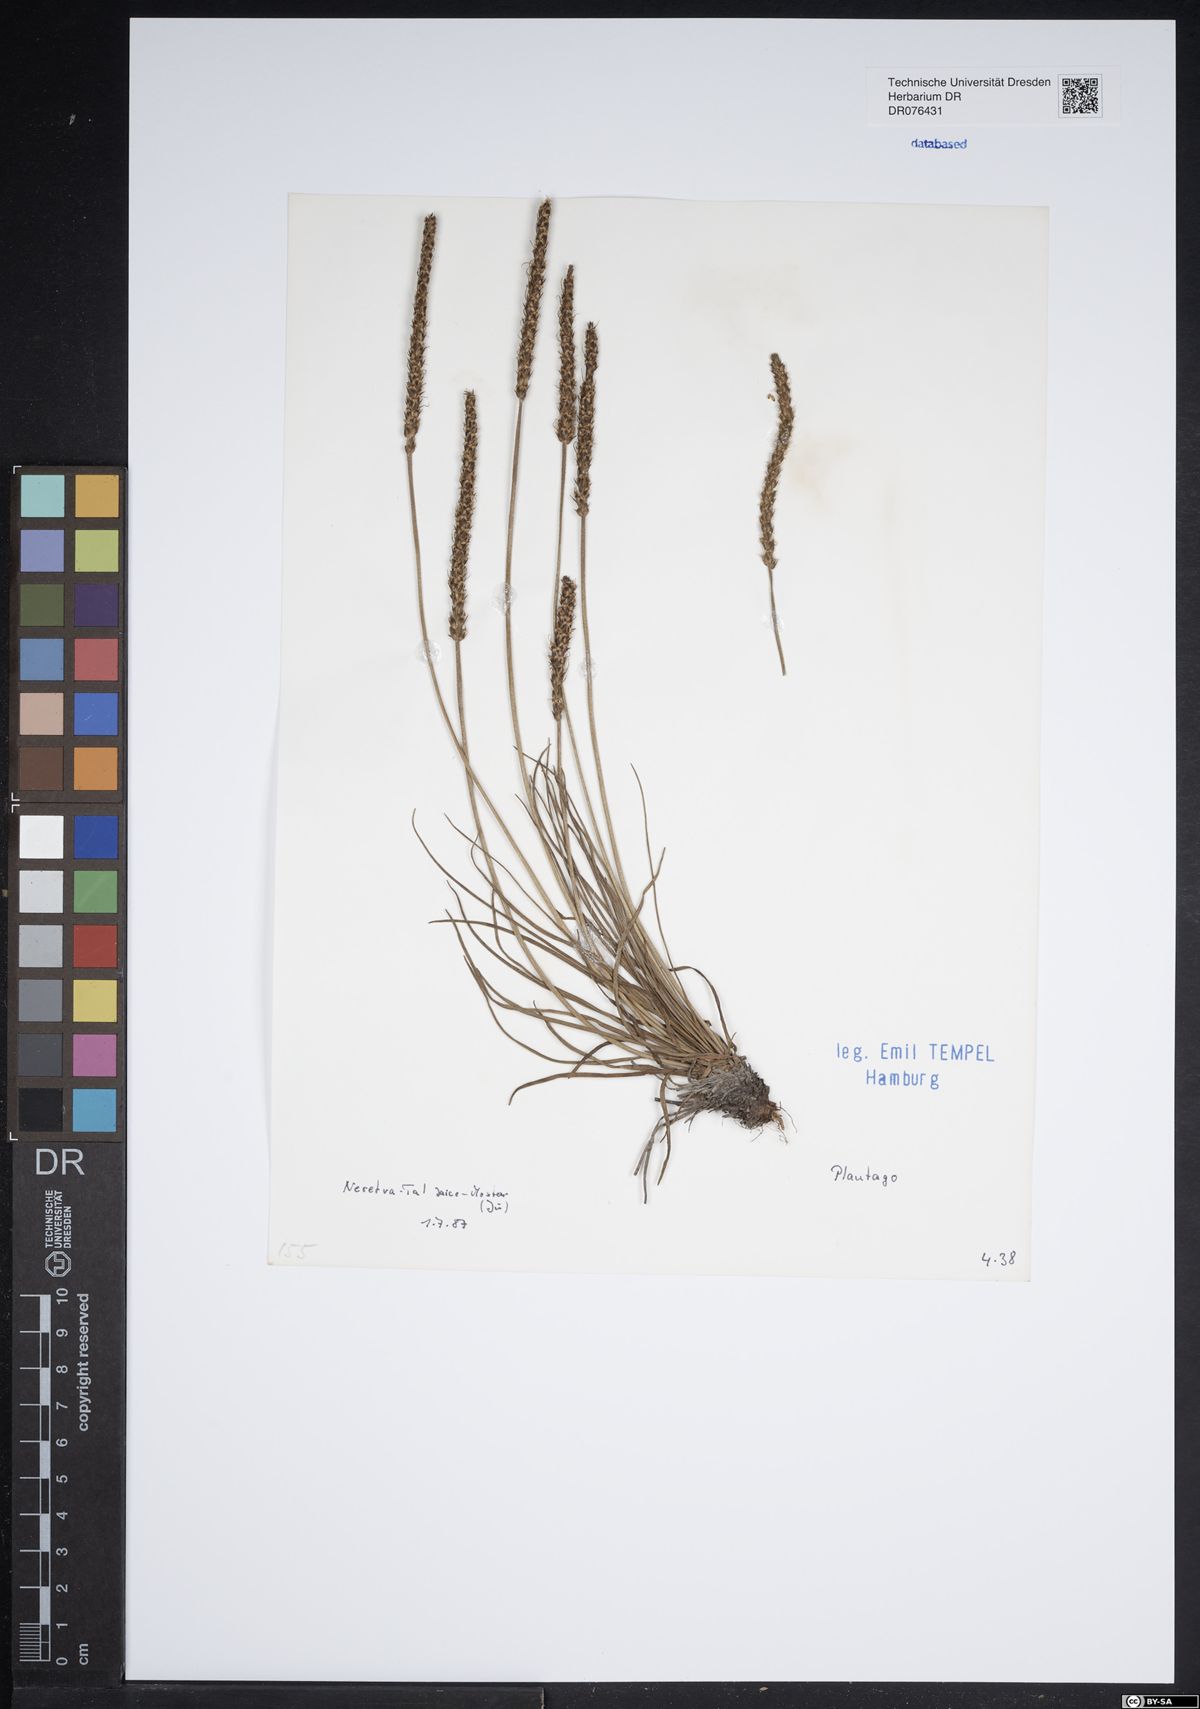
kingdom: Plantae
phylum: Tracheophyta
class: Magnoliopsida
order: Lamiales
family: Plantaginaceae
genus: Plantago
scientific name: Plantago
